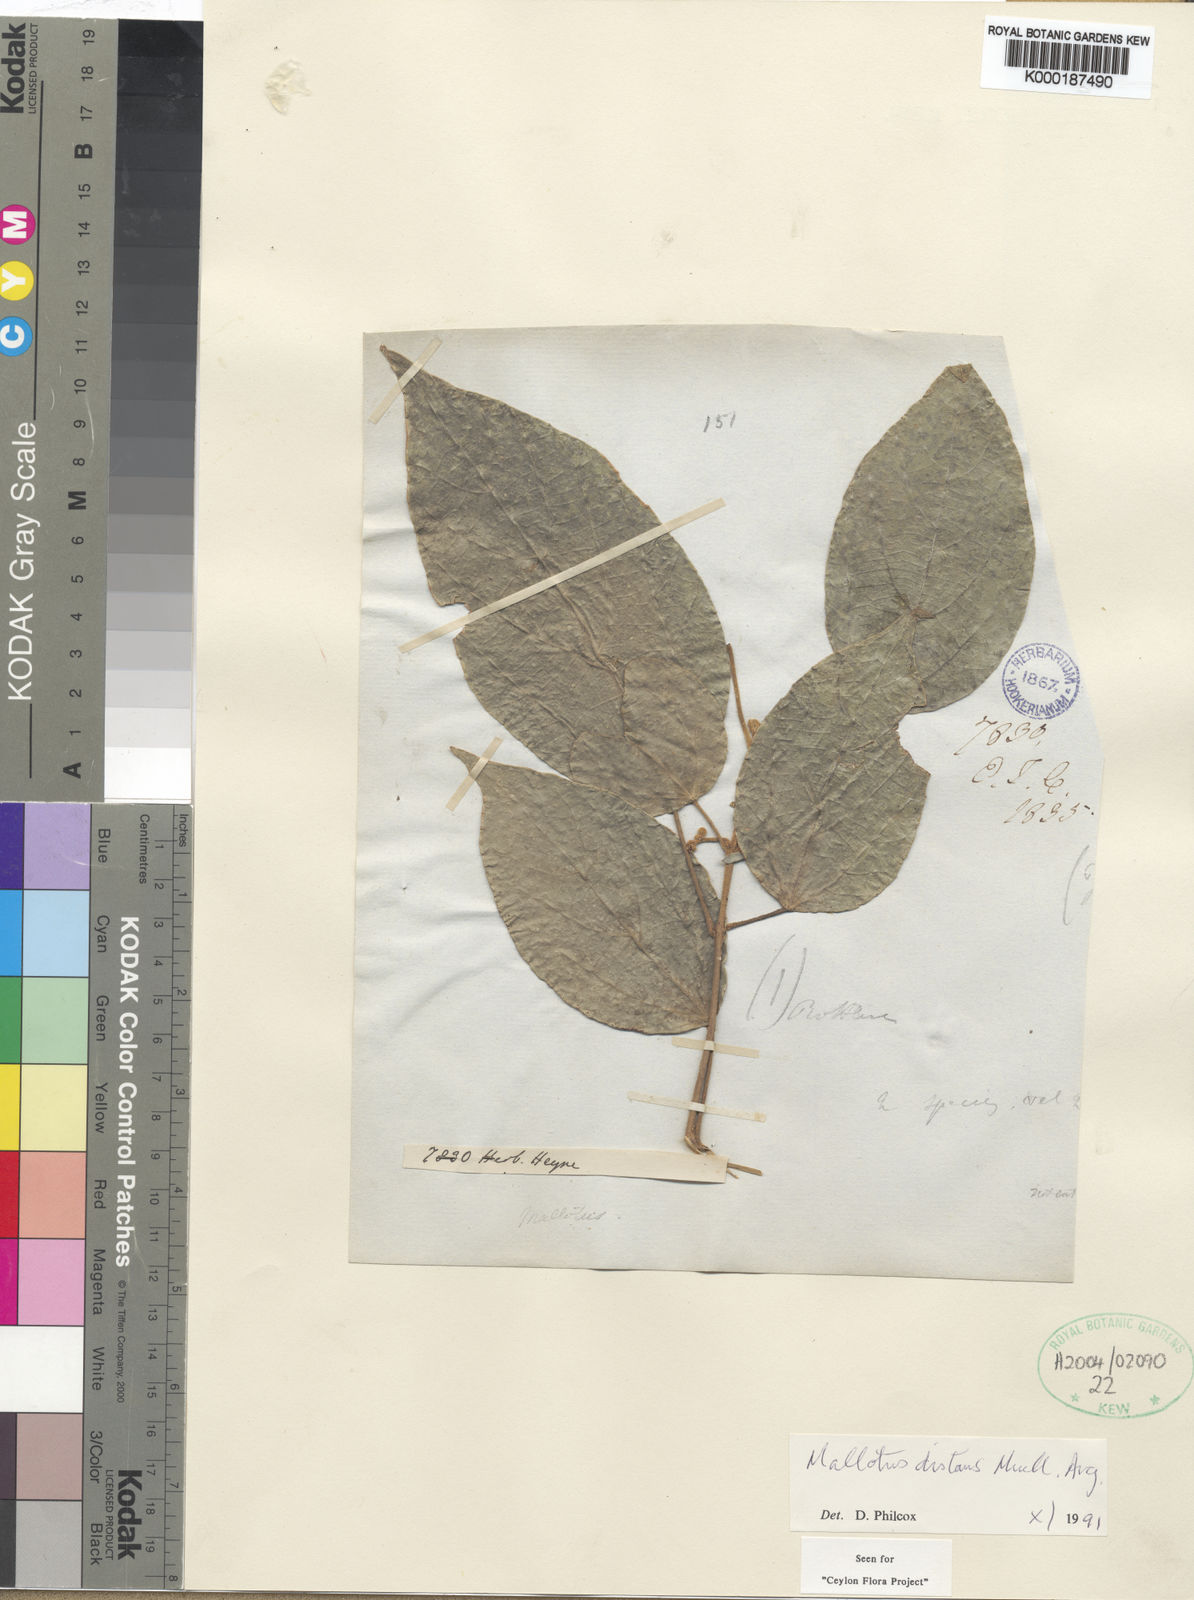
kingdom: Plantae
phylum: Tracheophyta
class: Magnoliopsida
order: Malpighiales
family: Euphorbiaceae
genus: Mallotus
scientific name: Mallotus distans
